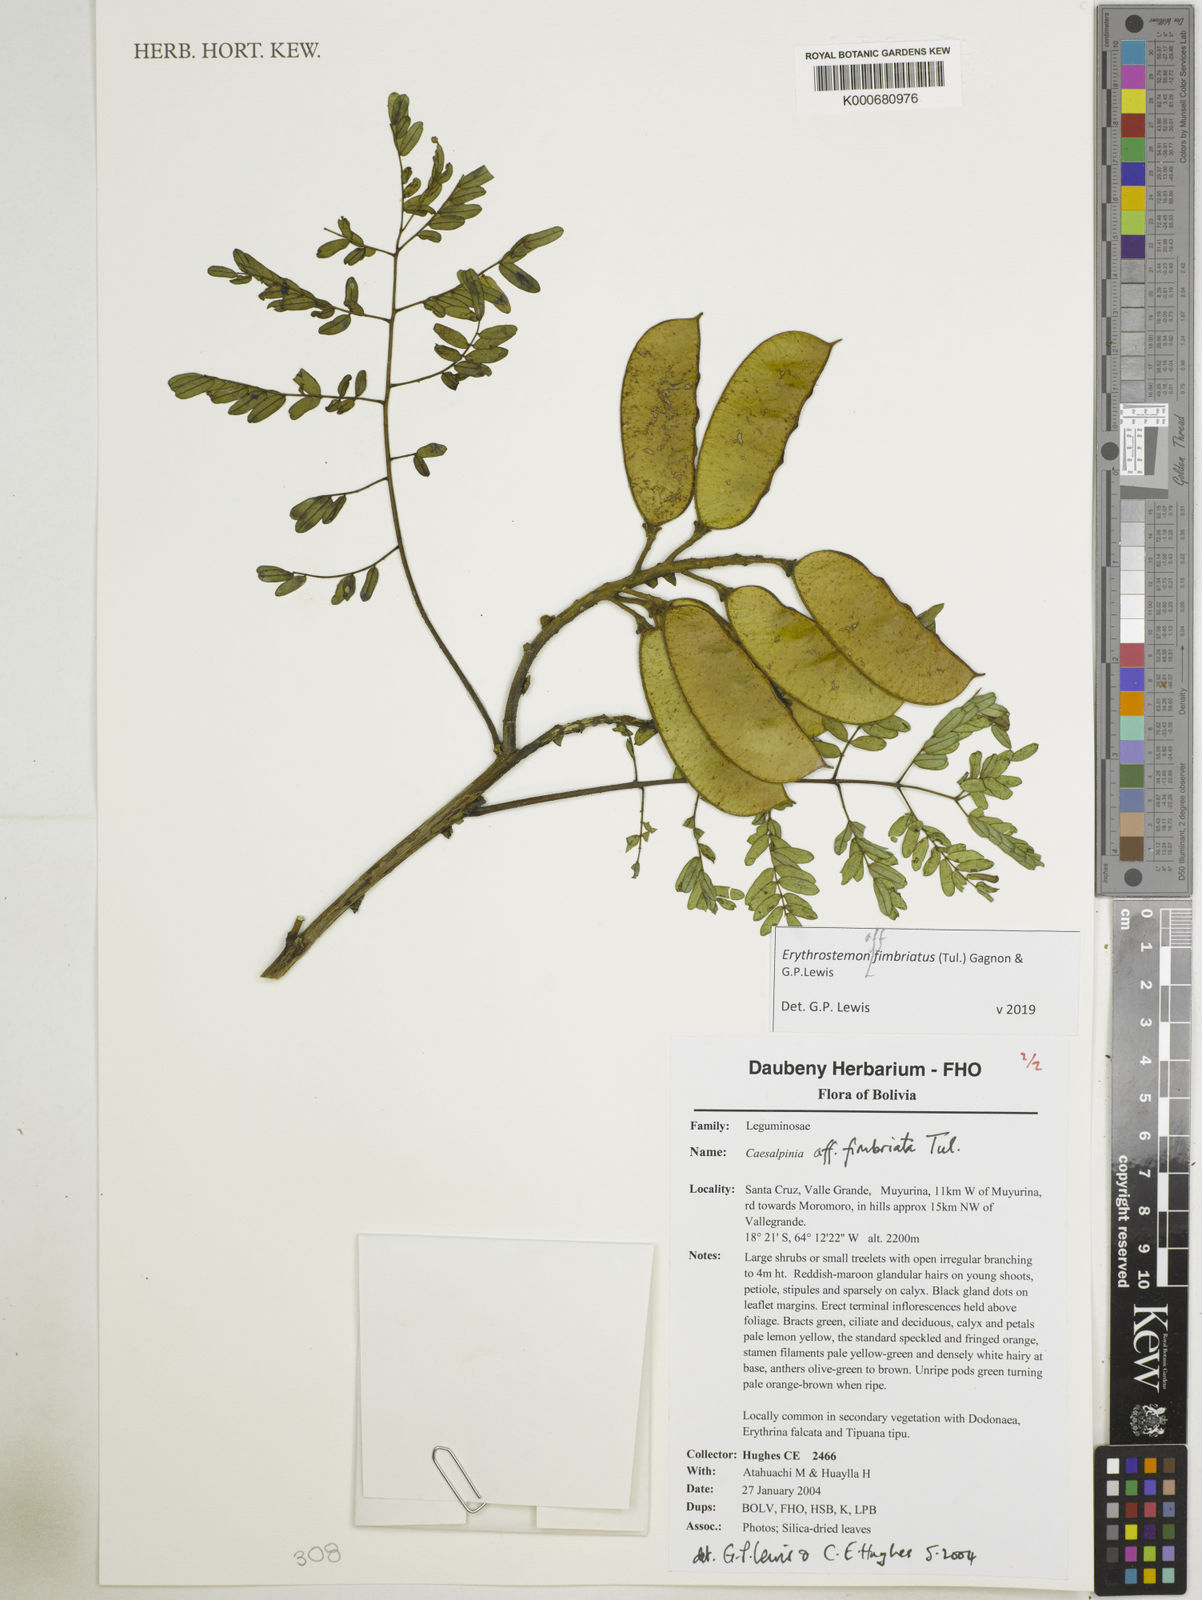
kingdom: Plantae
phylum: Tracheophyta
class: Magnoliopsida
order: Fabales
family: Fabaceae
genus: Erythrostemon
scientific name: Erythrostemon fimbriatus
